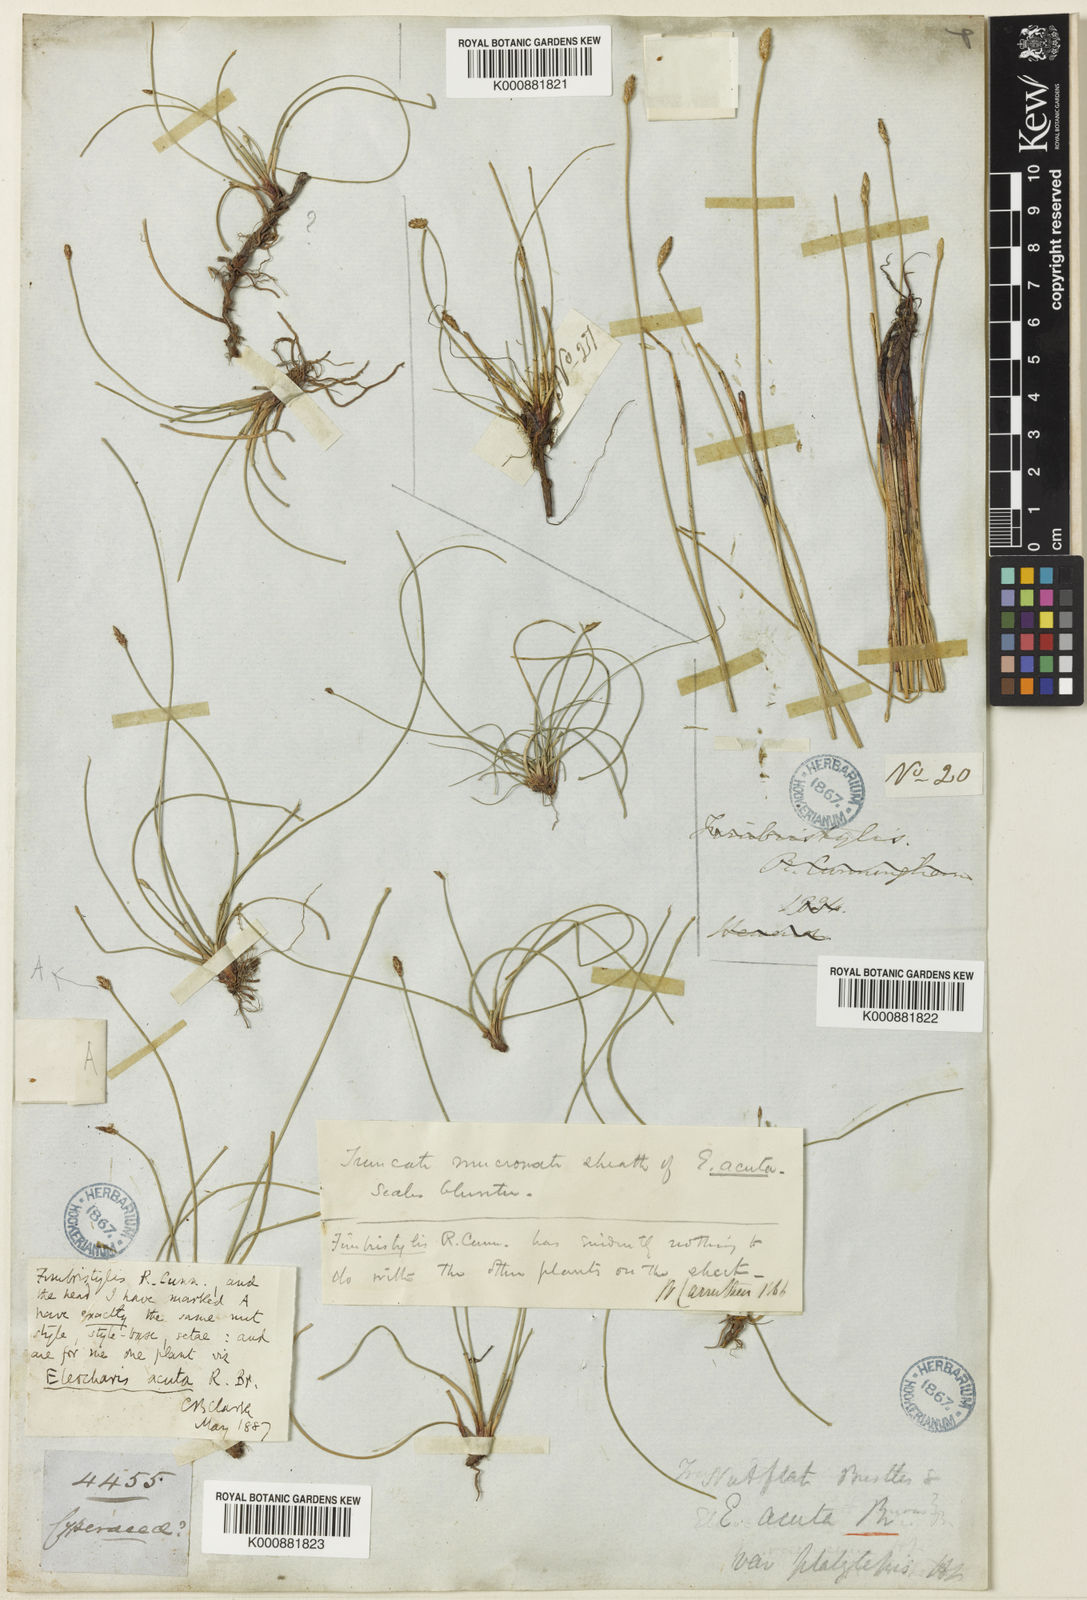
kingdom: Plantae
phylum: Tracheophyta
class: Liliopsida
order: Poales
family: Cyperaceae
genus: Eleocharis
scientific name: Eleocharis acuta
